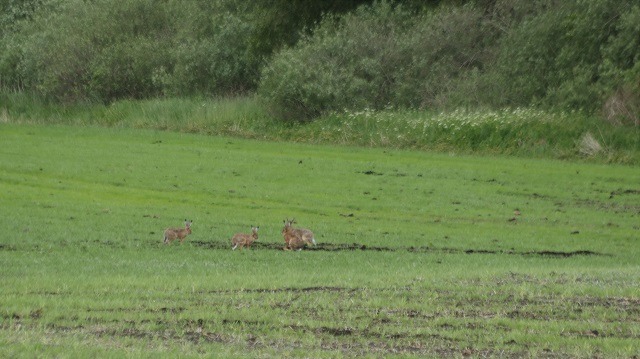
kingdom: Animalia
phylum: Chordata
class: Mammalia
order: Lagomorpha
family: Leporidae
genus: Lepus
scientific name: Lepus europaeus
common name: Hare
